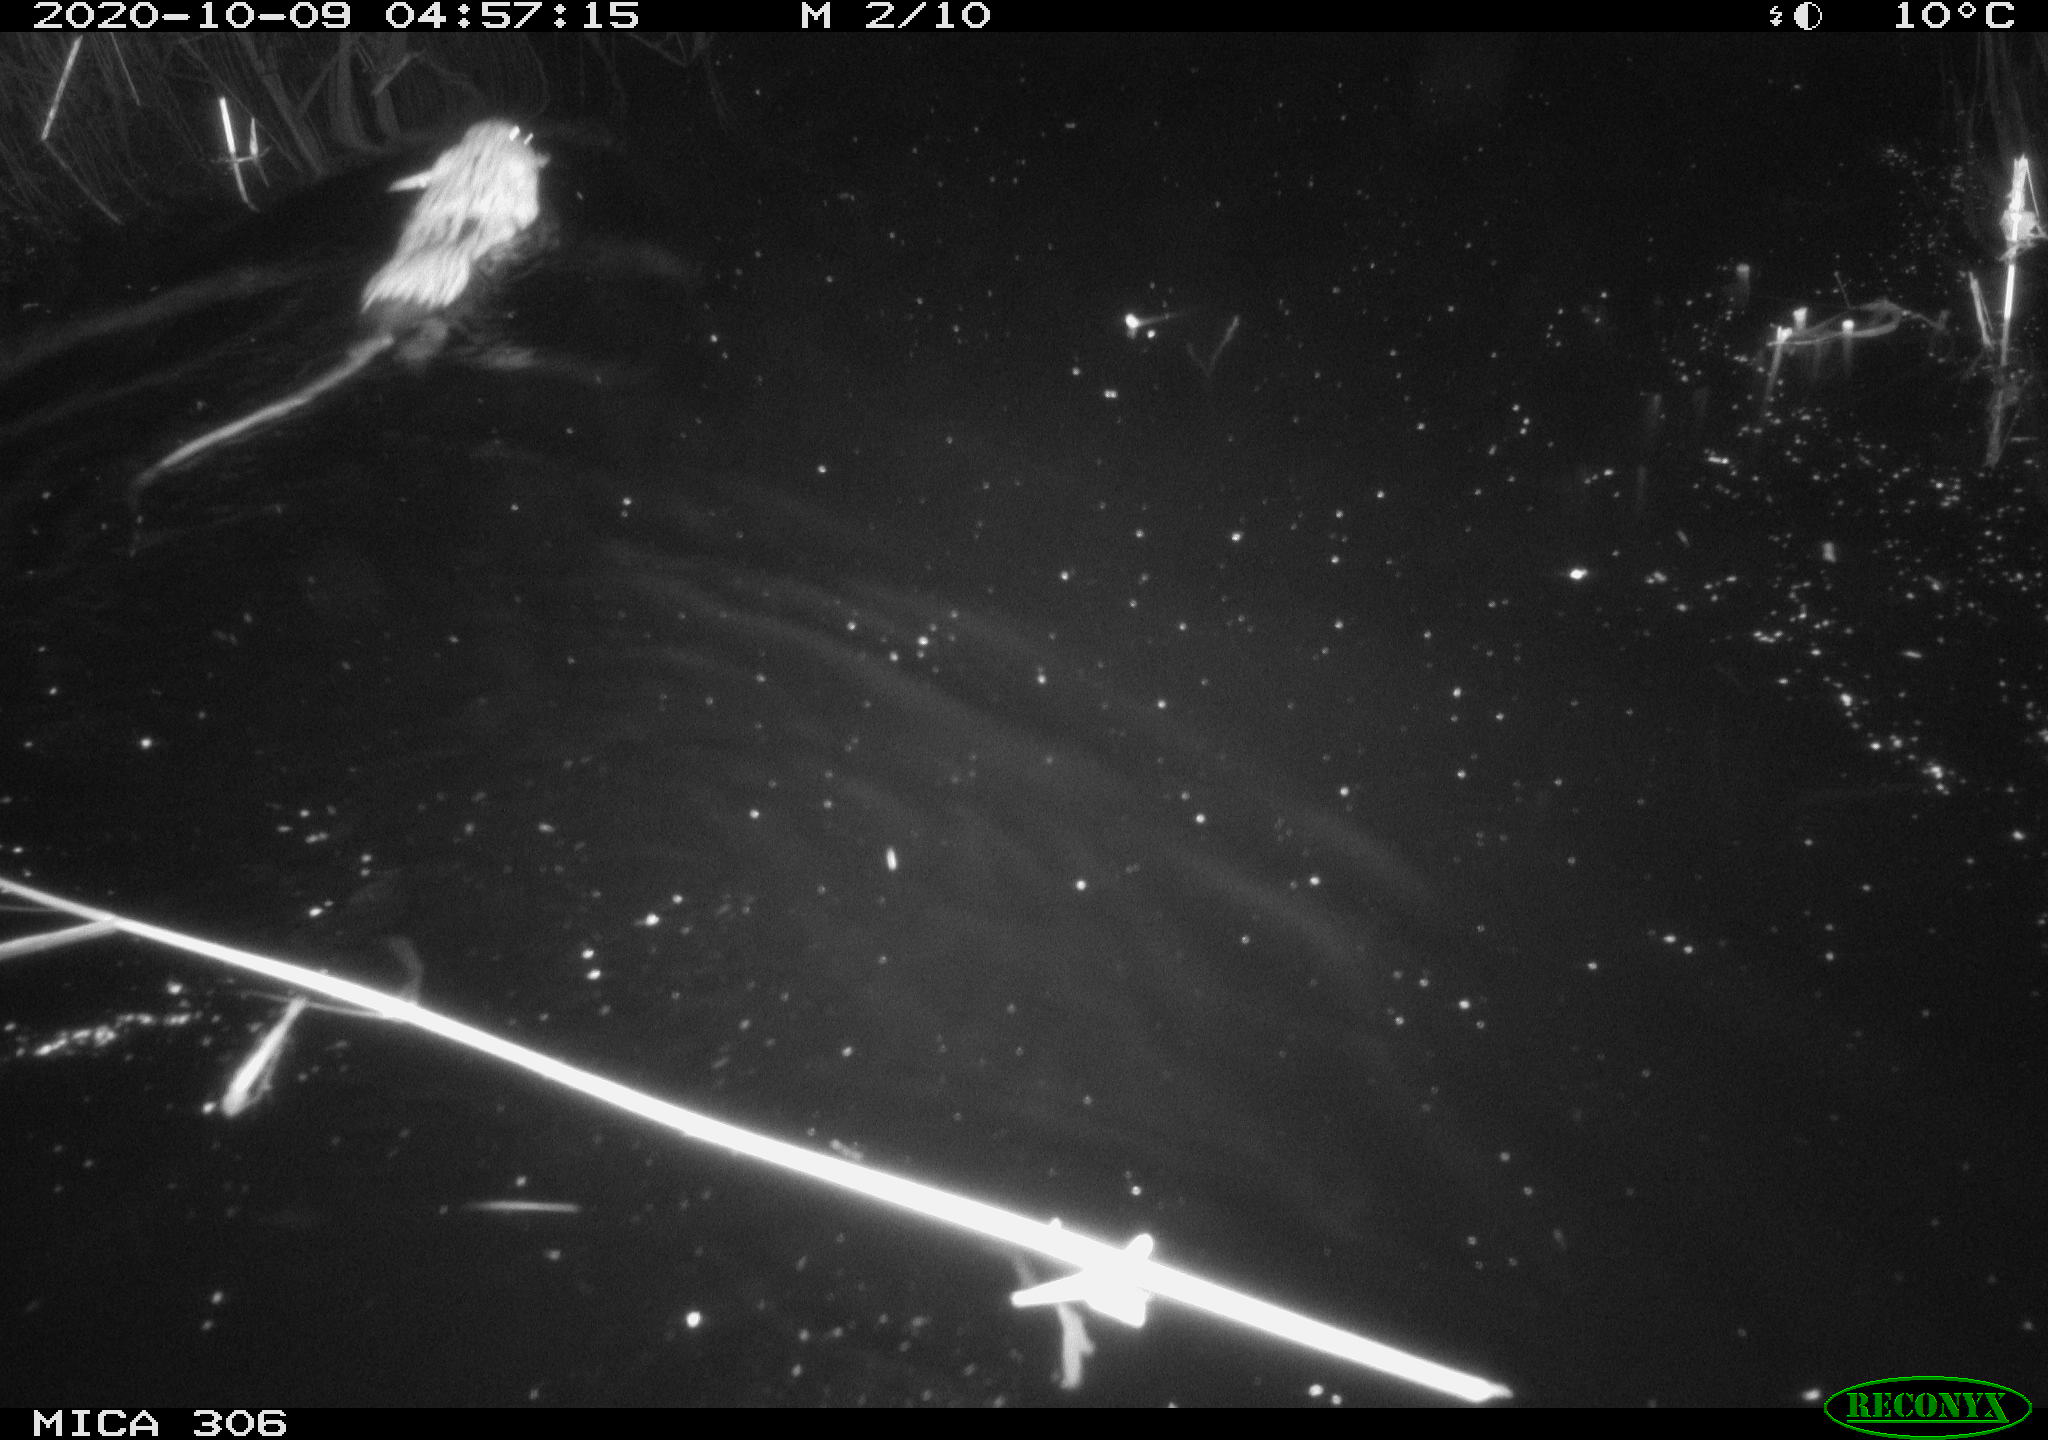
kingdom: Animalia
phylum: Chordata
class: Mammalia
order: Rodentia
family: Cricetidae
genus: Ondatra
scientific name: Ondatra zibethicus
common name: Muskrat
